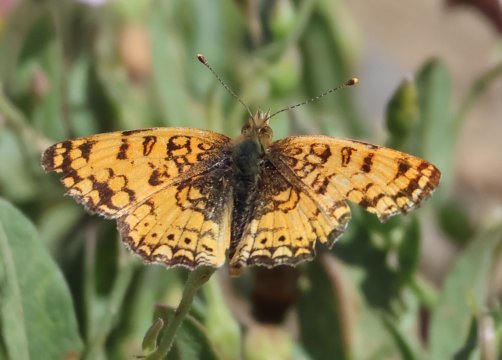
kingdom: Animalia
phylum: Arthropoda
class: Insecta
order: Lepidoptera
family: Nymphalidae
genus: Eresia
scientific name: Eresia aveyrona
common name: Mylitta Crescent
